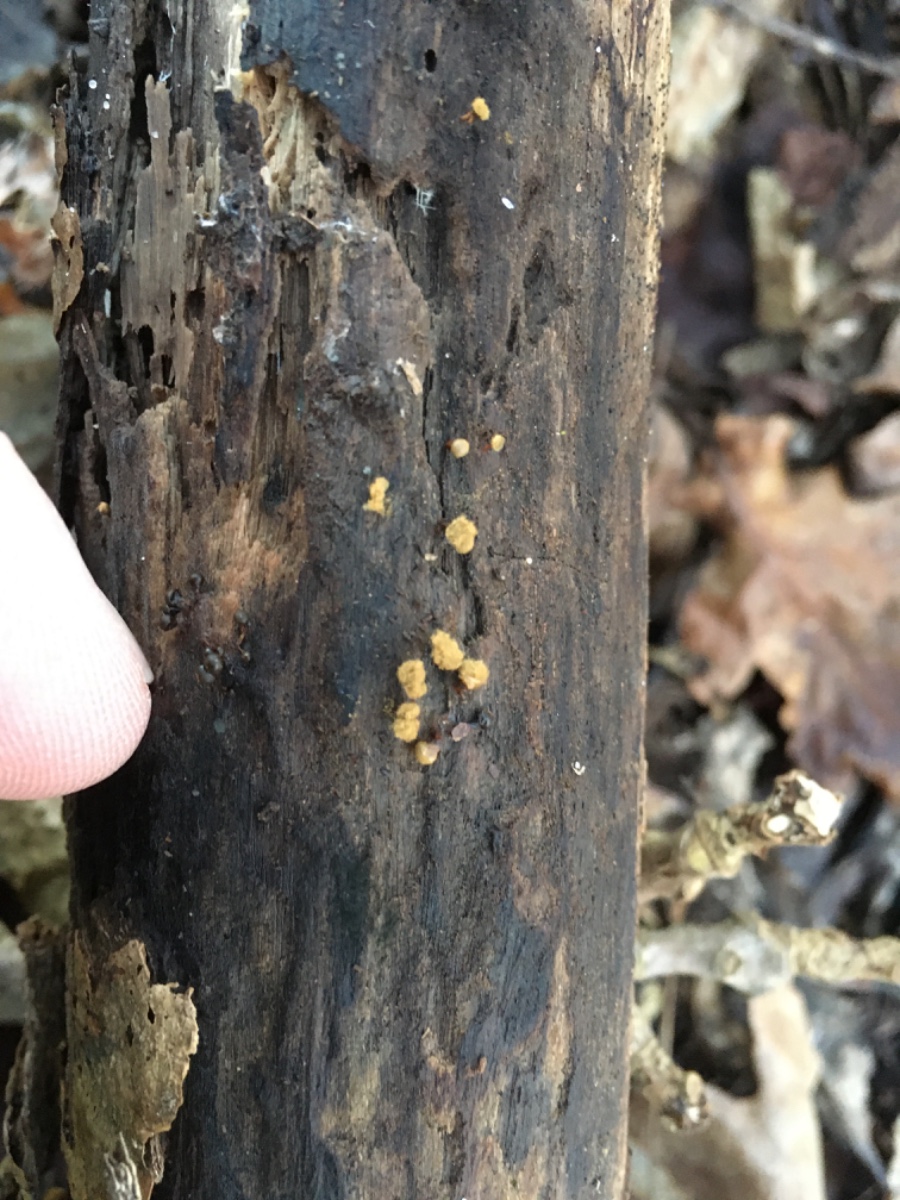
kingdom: Protozoa
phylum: Mycetozoa
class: Myxomycetes
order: Trichiales
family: Trichiaceae
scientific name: Trichiaceae
